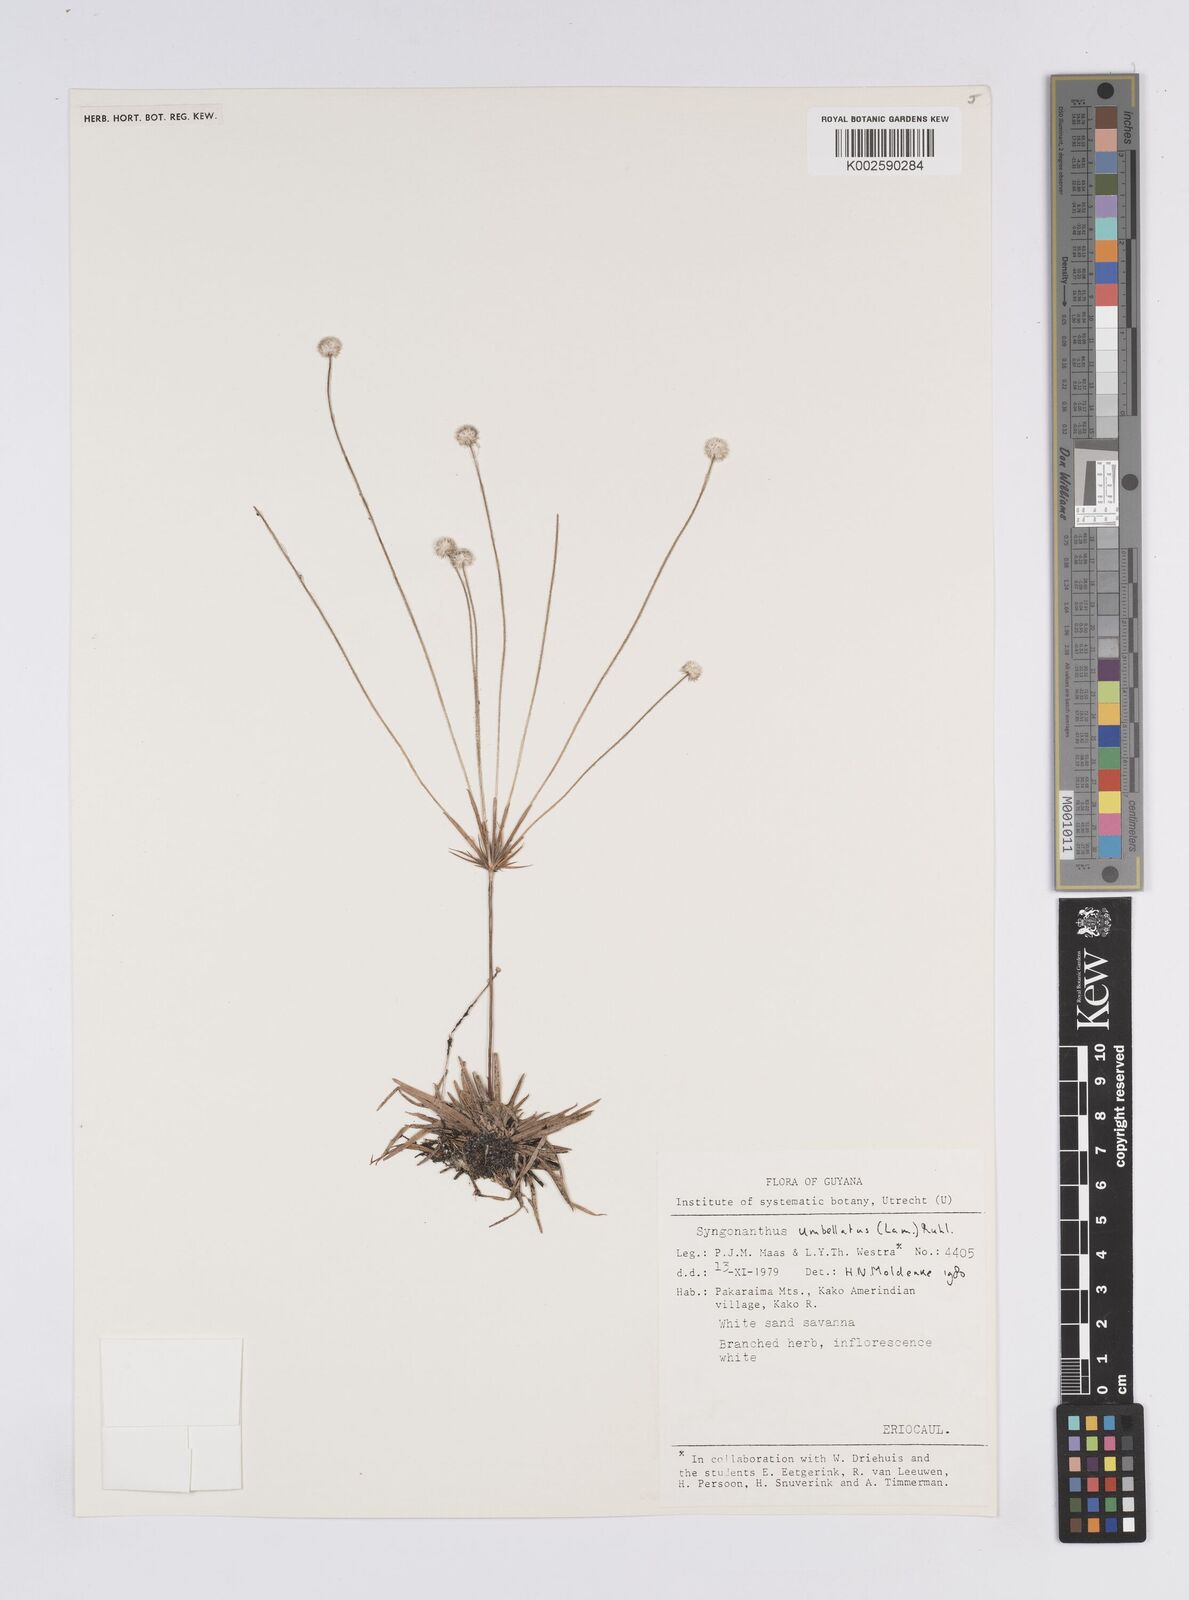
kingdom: Plantae
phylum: Tracheophyta
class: Liliopsida
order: Poales
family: Eriocaulaceae
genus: Syngonanthus
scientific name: Syngonanthus umbellatus
